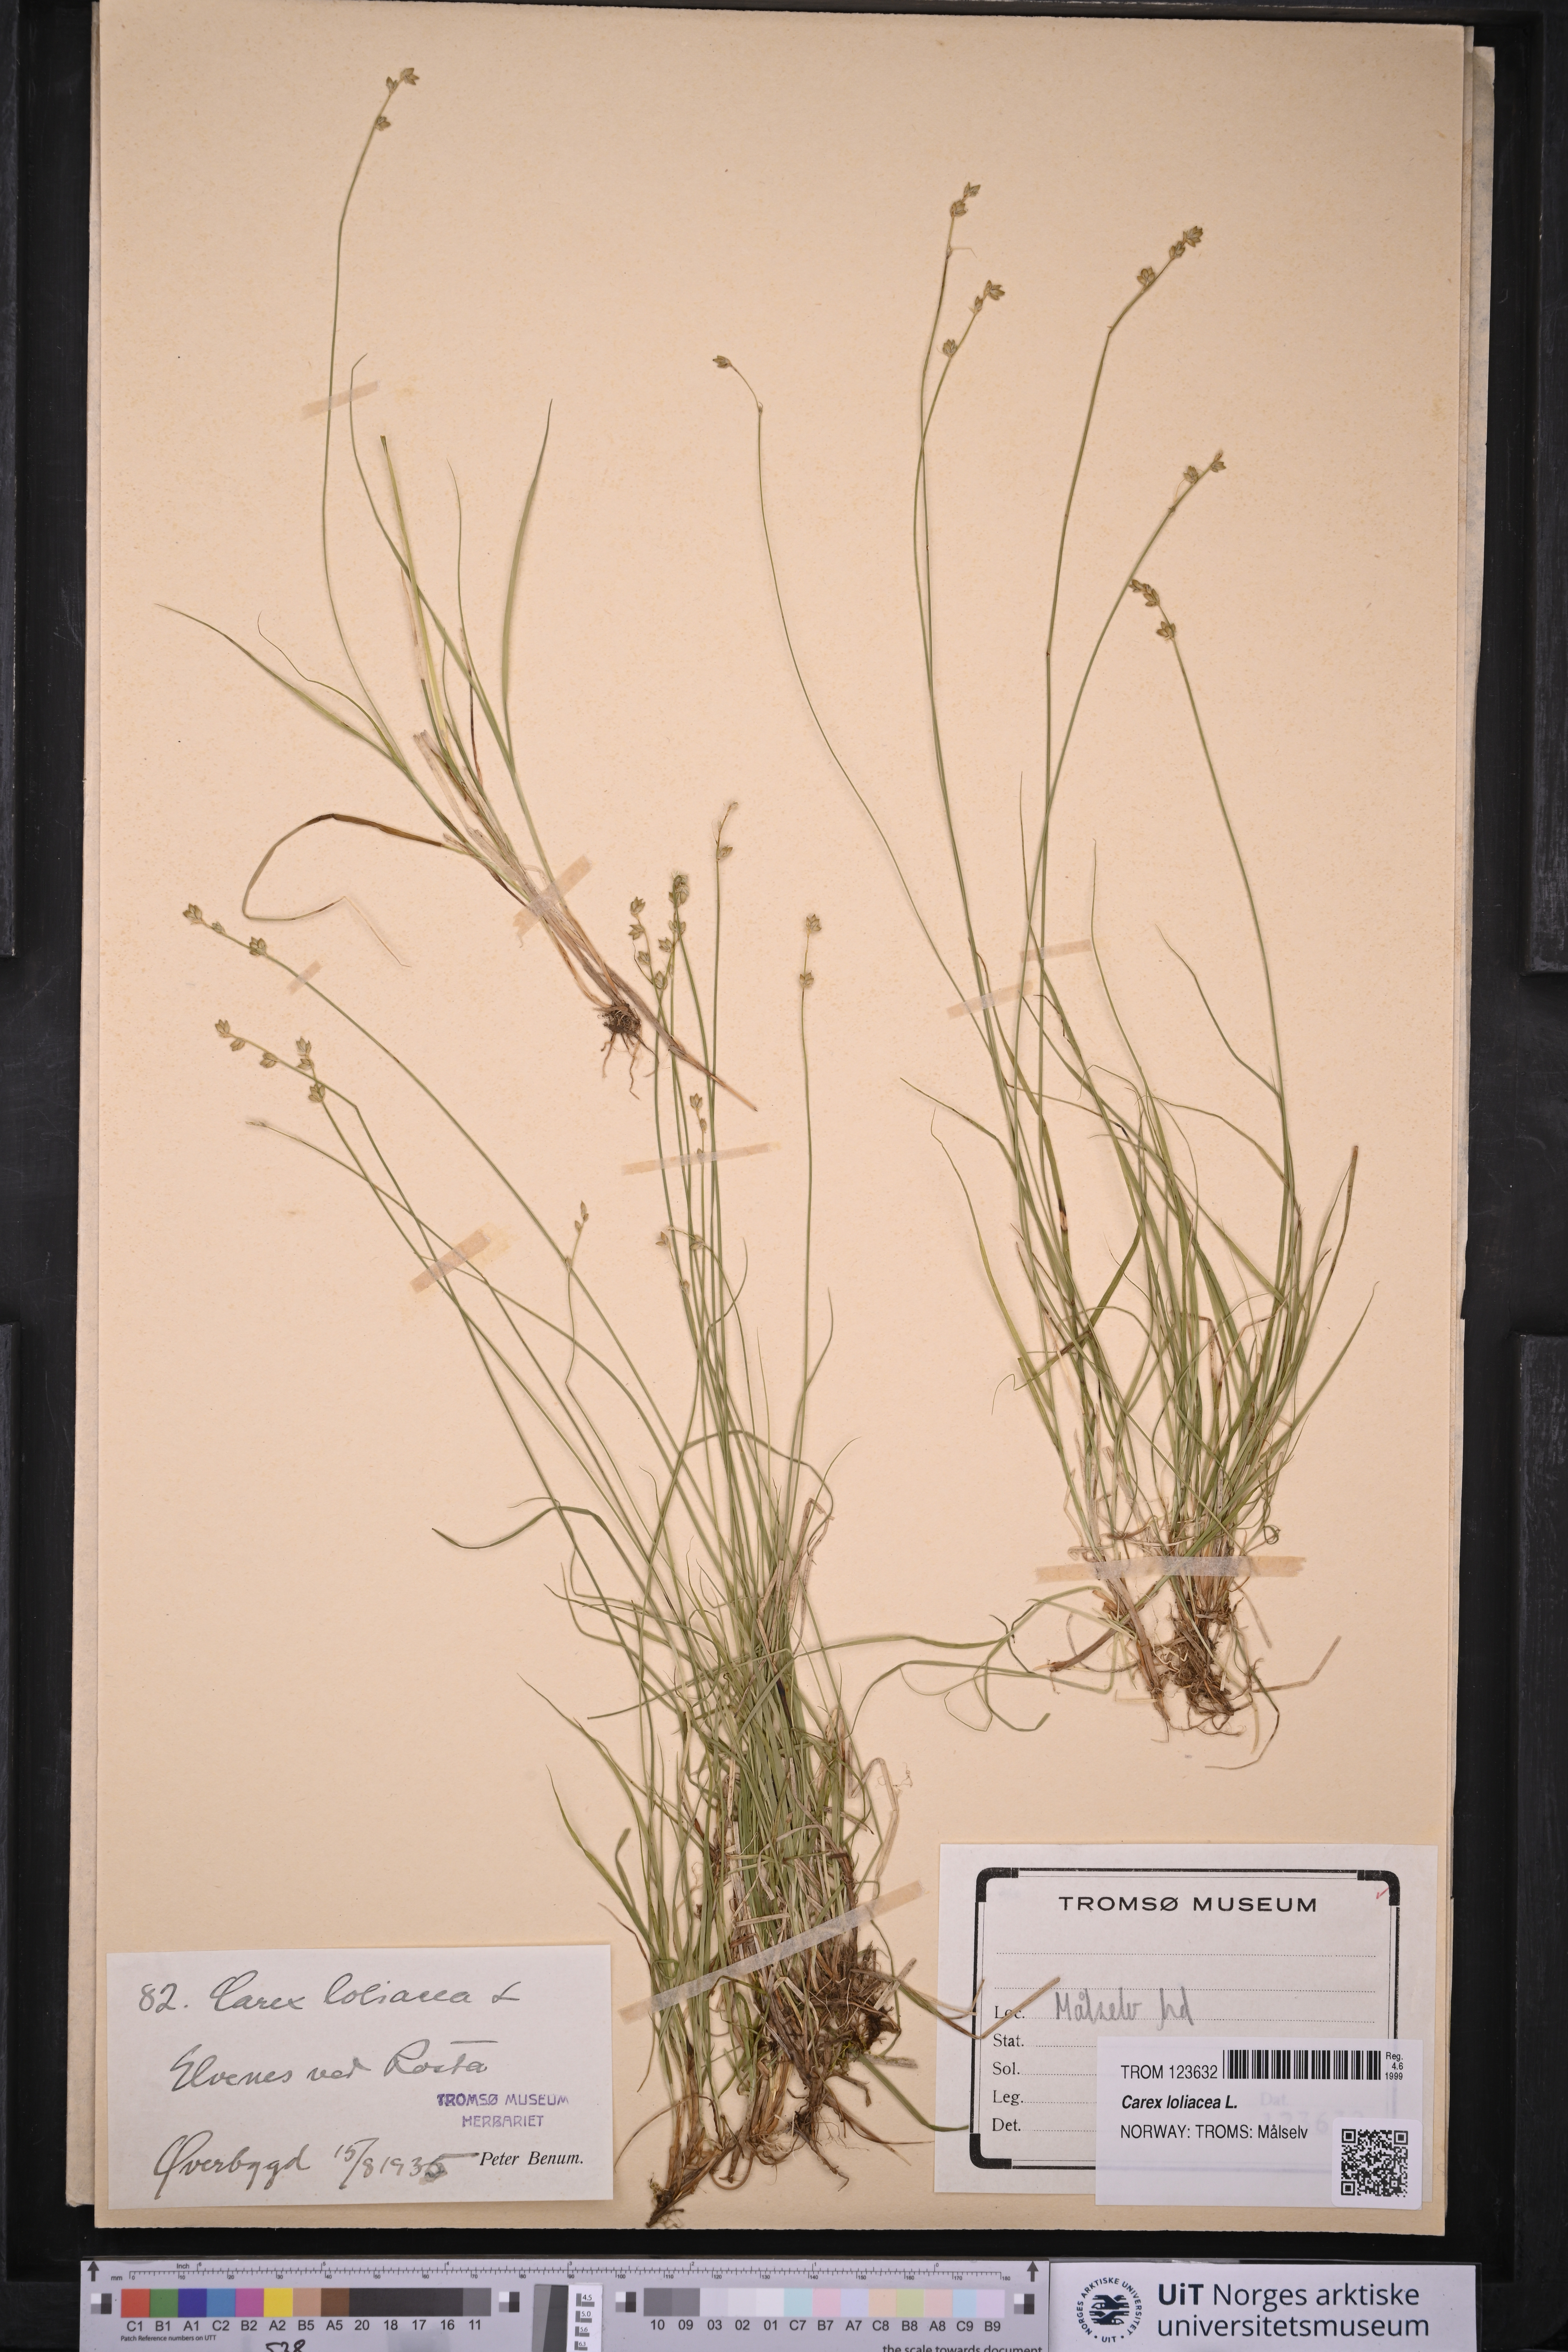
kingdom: Plantae
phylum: Tracheophyta
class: Liliopsida
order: Poales
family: Cyperaceae
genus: Carex
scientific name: Carex loliacea
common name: Ryegrass sedge
